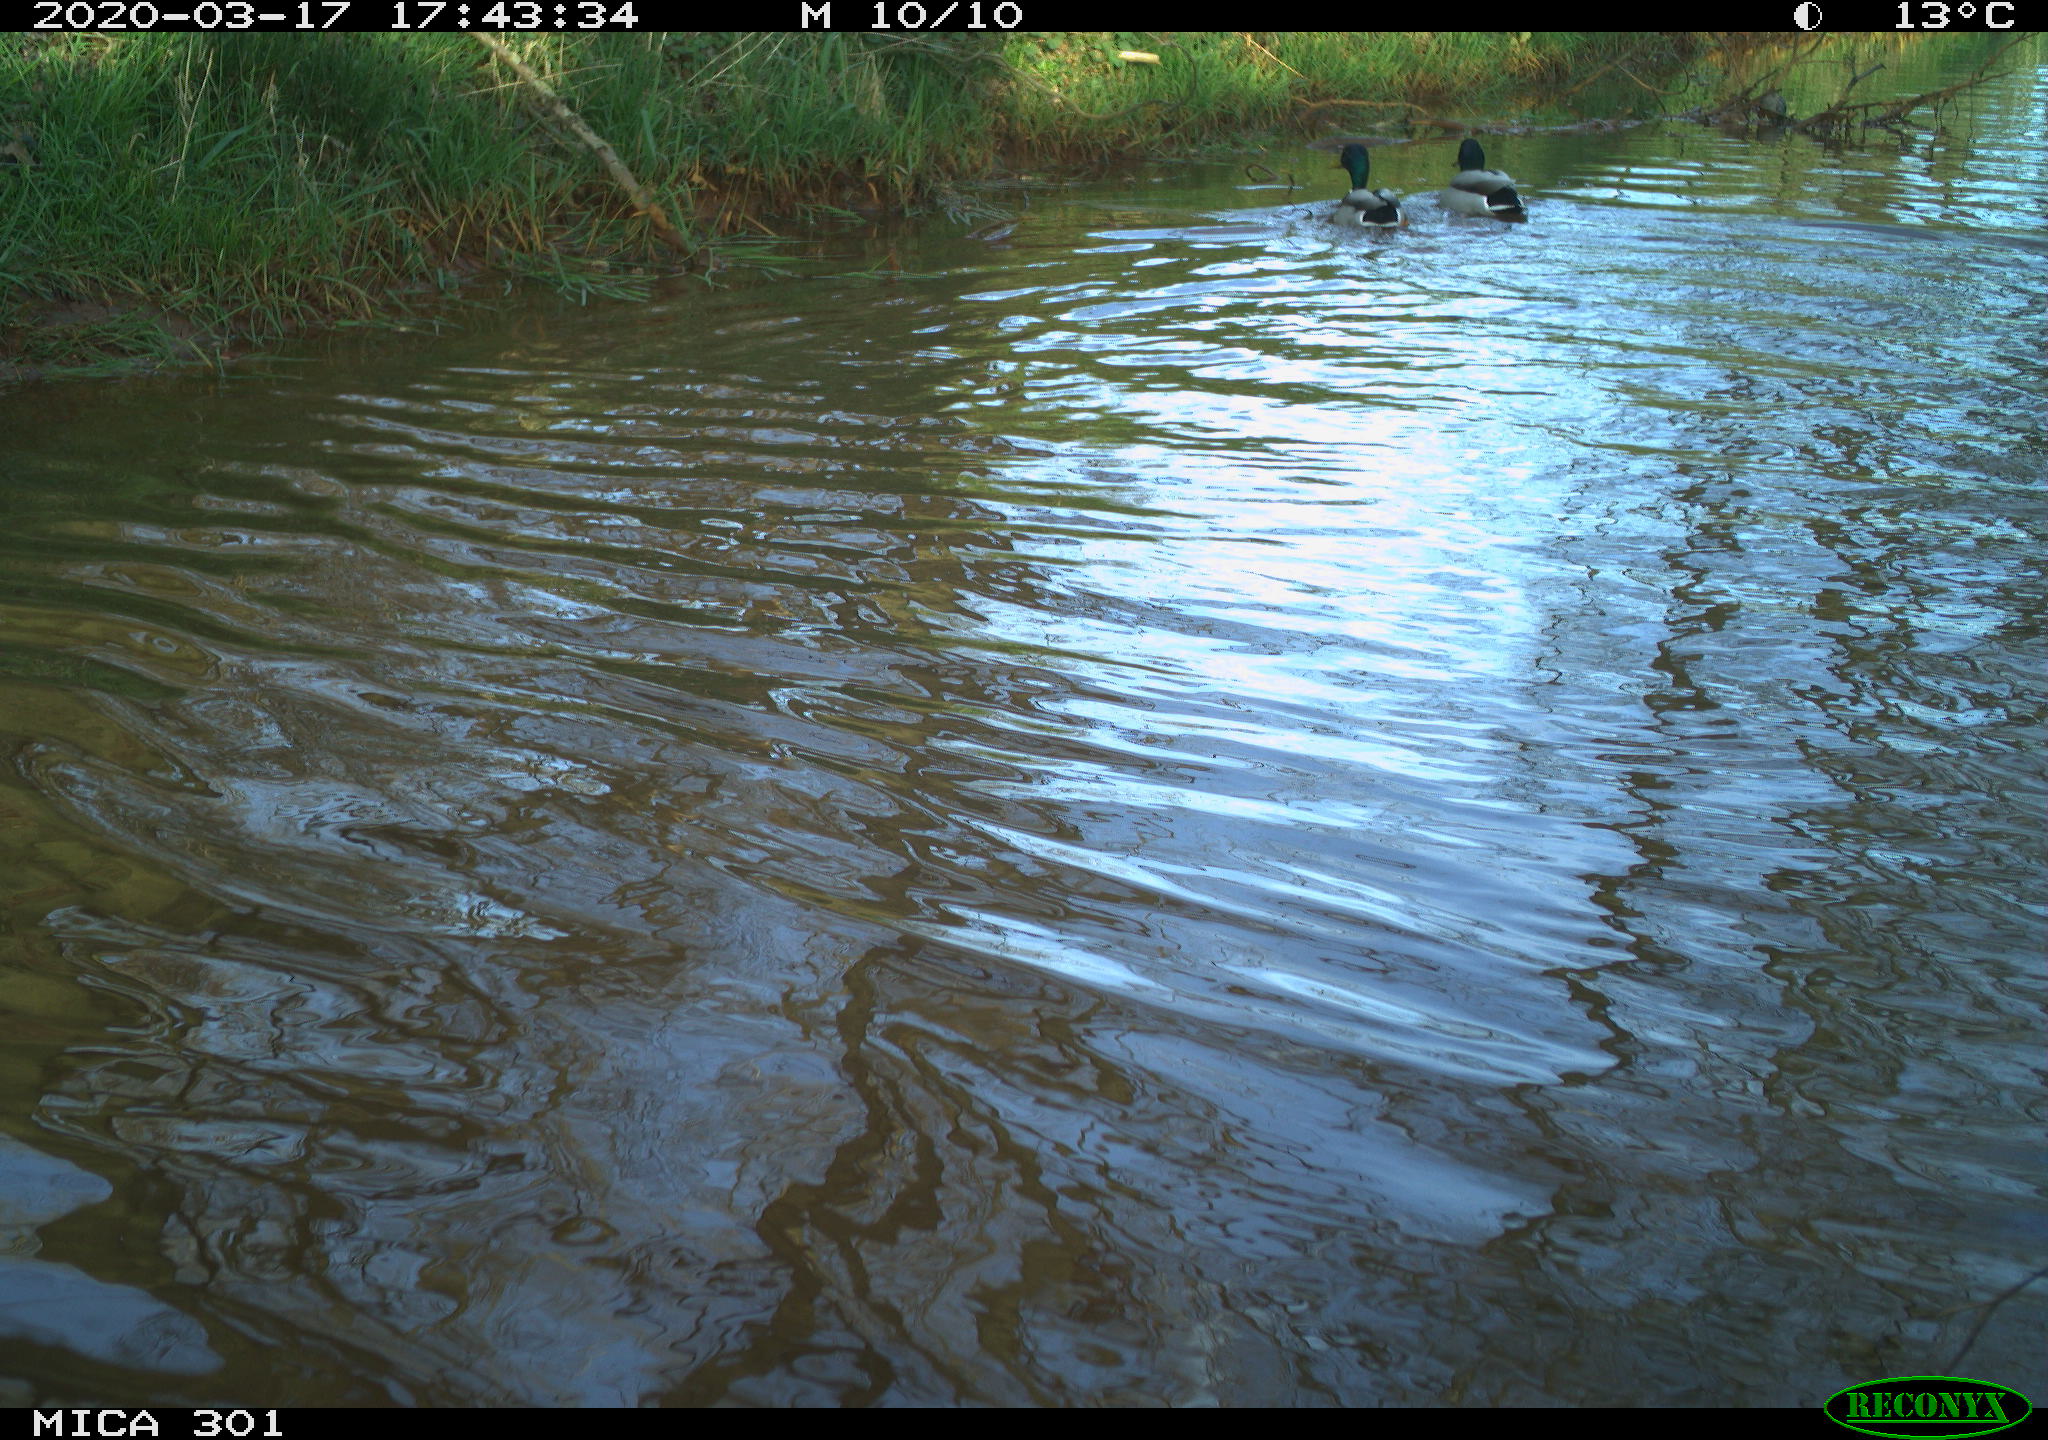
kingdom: Animalia
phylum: Chordata
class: Aves
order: Anseriformes
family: Anatidae
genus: Anas
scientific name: Anas platyrhynchos
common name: Mallard
